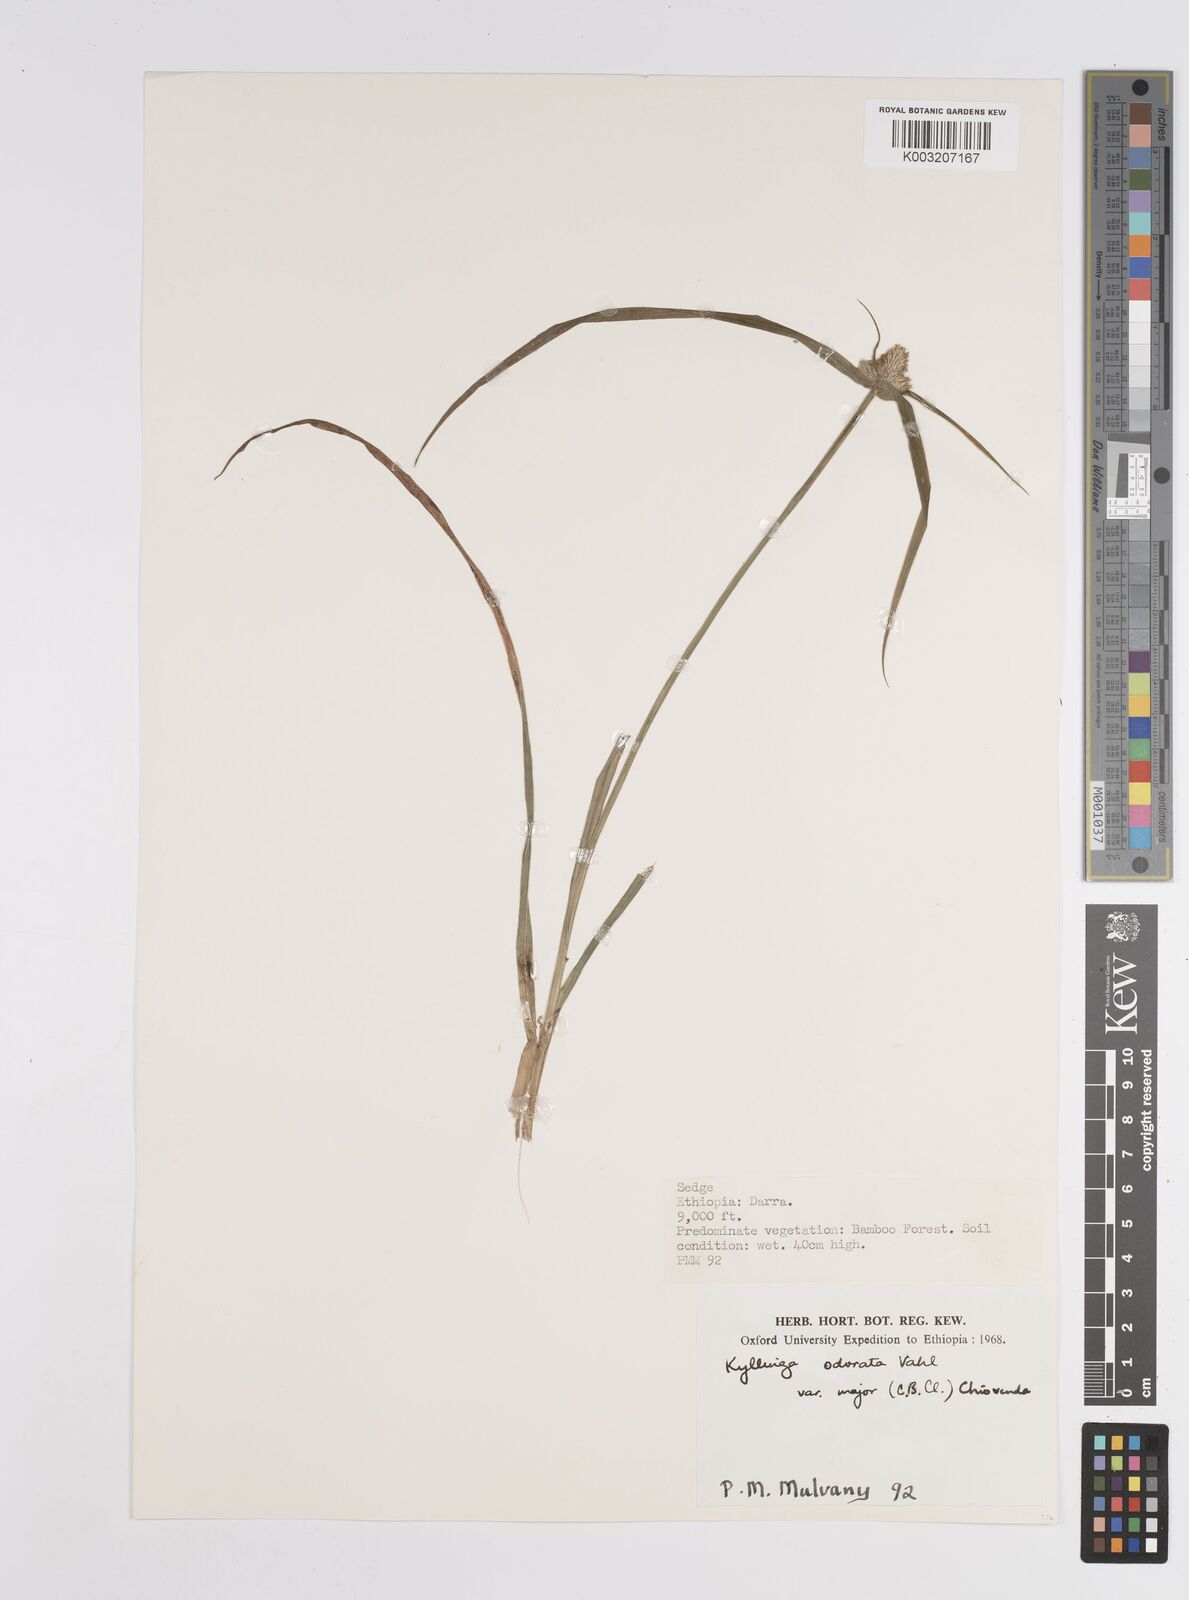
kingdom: Plantae
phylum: Tracheophyta
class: Liliopsida
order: Poales
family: Cyperaceae
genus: Cyperus
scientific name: Cyperus
